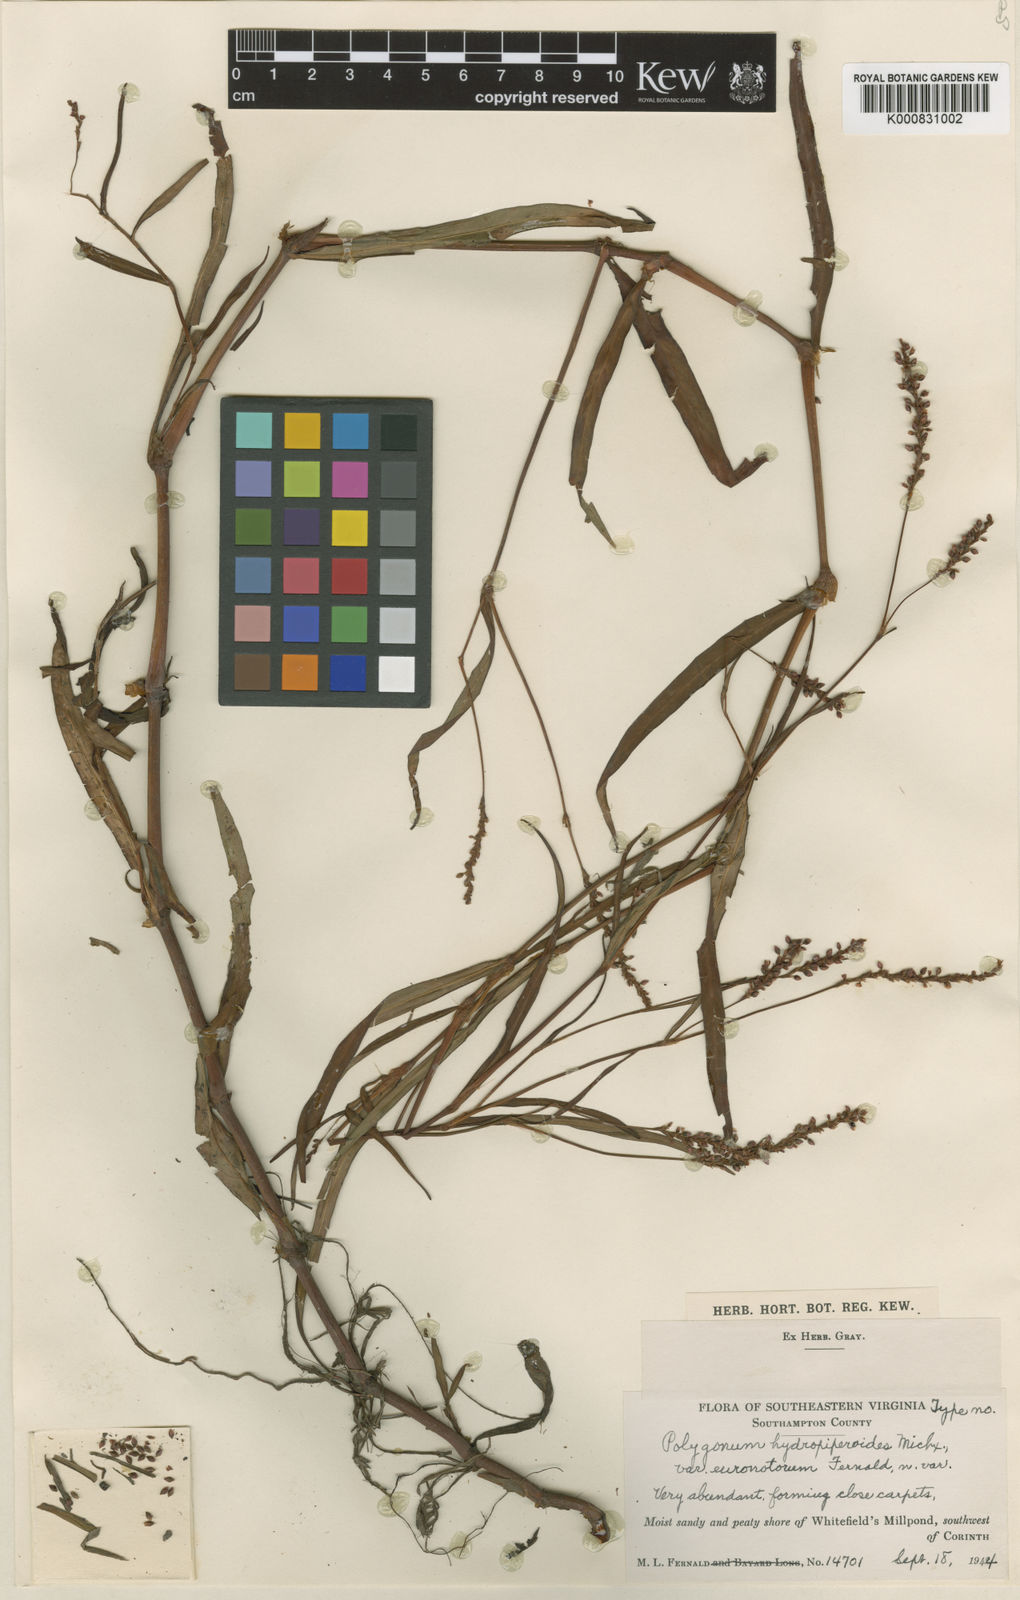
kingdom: Plantae
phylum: Tracheophyta
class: Magnoliopsida
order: Caryophyllales
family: Polygonaceae
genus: Persicaria
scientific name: Persicaria hydropiperoides
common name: Swamp smartweed
